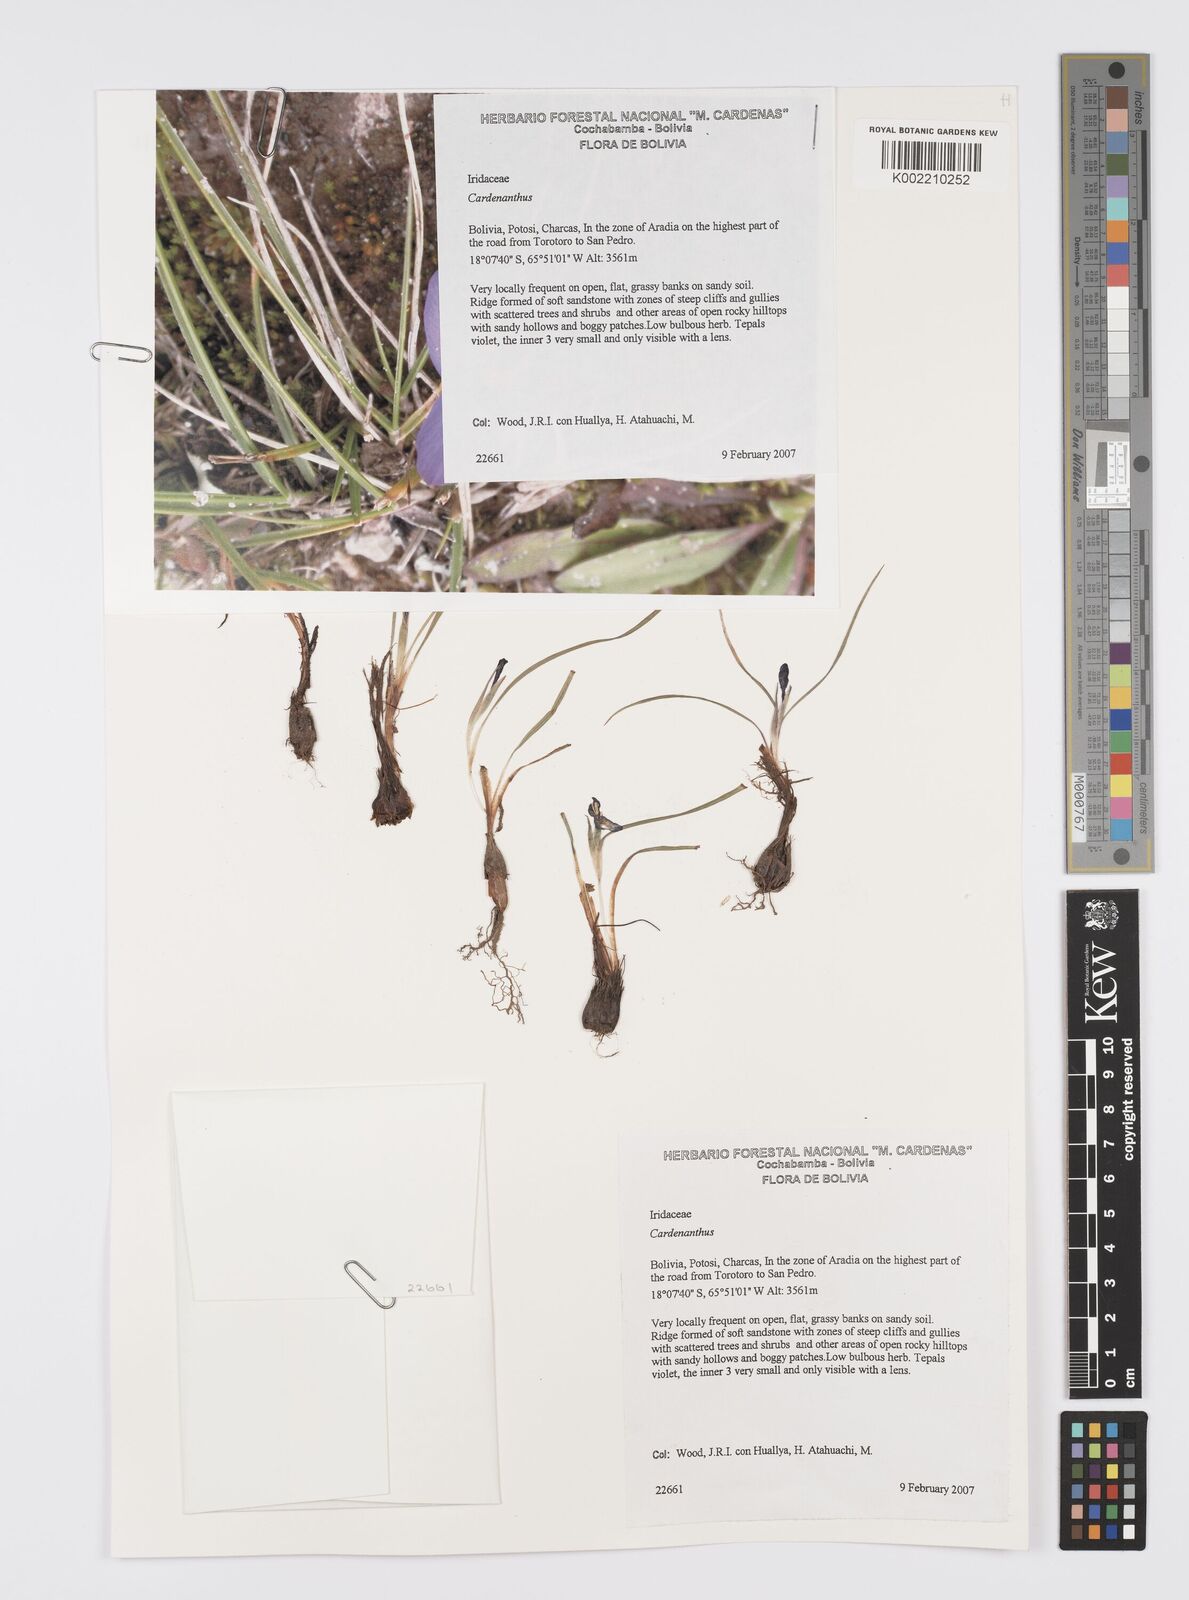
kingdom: Plantae
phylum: Tracheophyta
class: Liliopsida
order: Asparagales
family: Iridaceae
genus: Mastigostyla
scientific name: Mastigostyla
